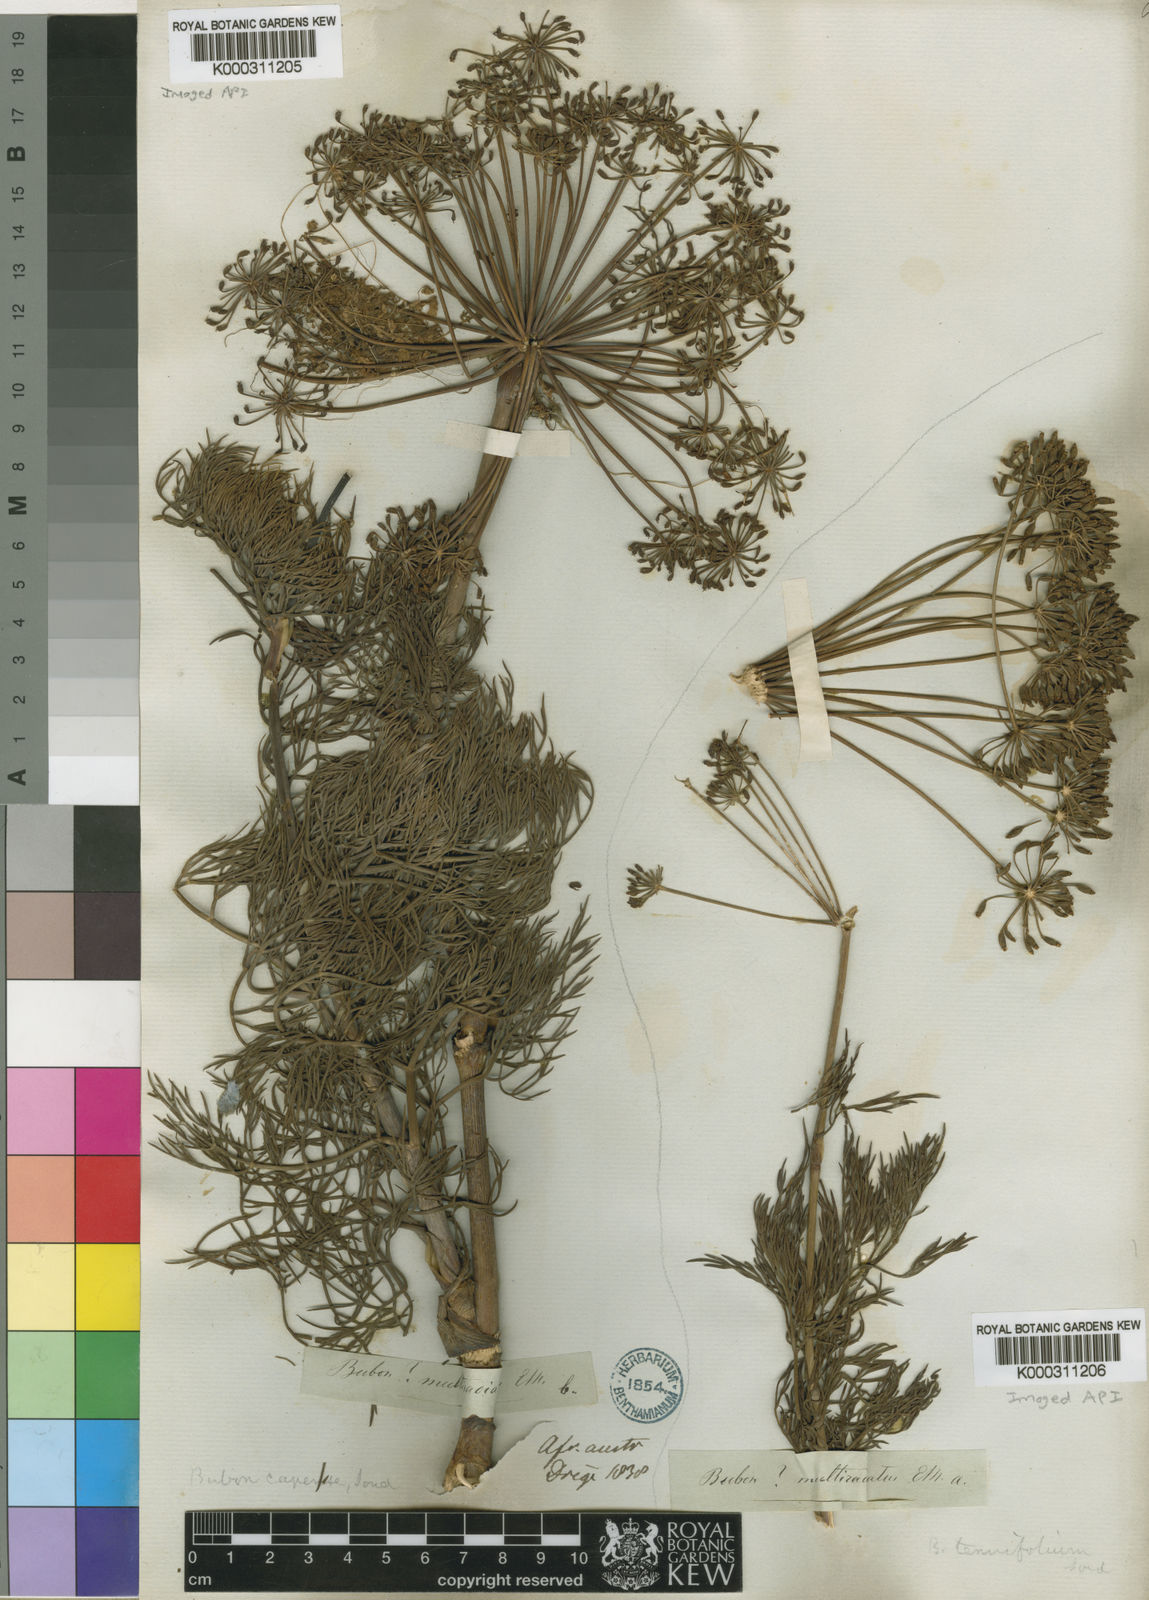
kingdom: Plantae
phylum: Tracheophyta
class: Magnoliopsida
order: Apiales
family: Apiaceae
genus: Notobubon
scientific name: Notobubon capense
